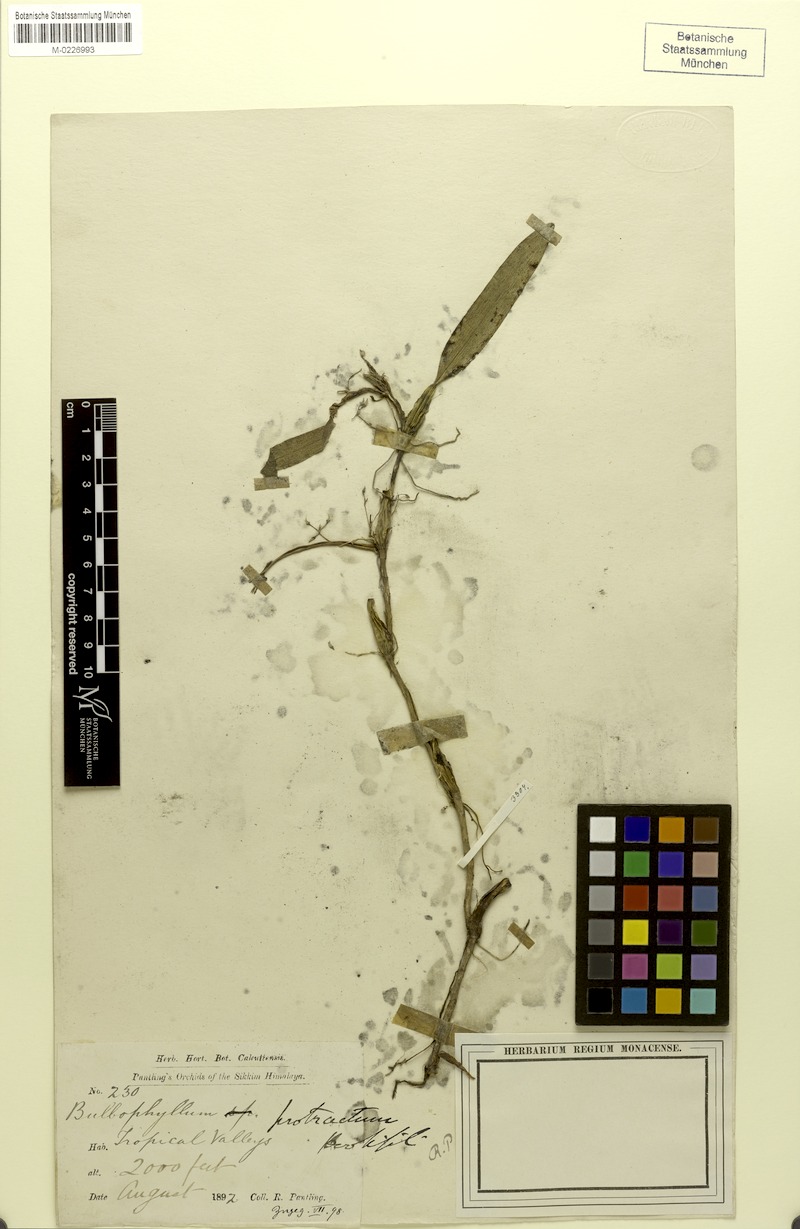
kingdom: Plantae
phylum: Tracheophyta
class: Liliopsida
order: Asparagales
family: Orchidaceae
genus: Bulbophyllum
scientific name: Bulbophyllum protractum
